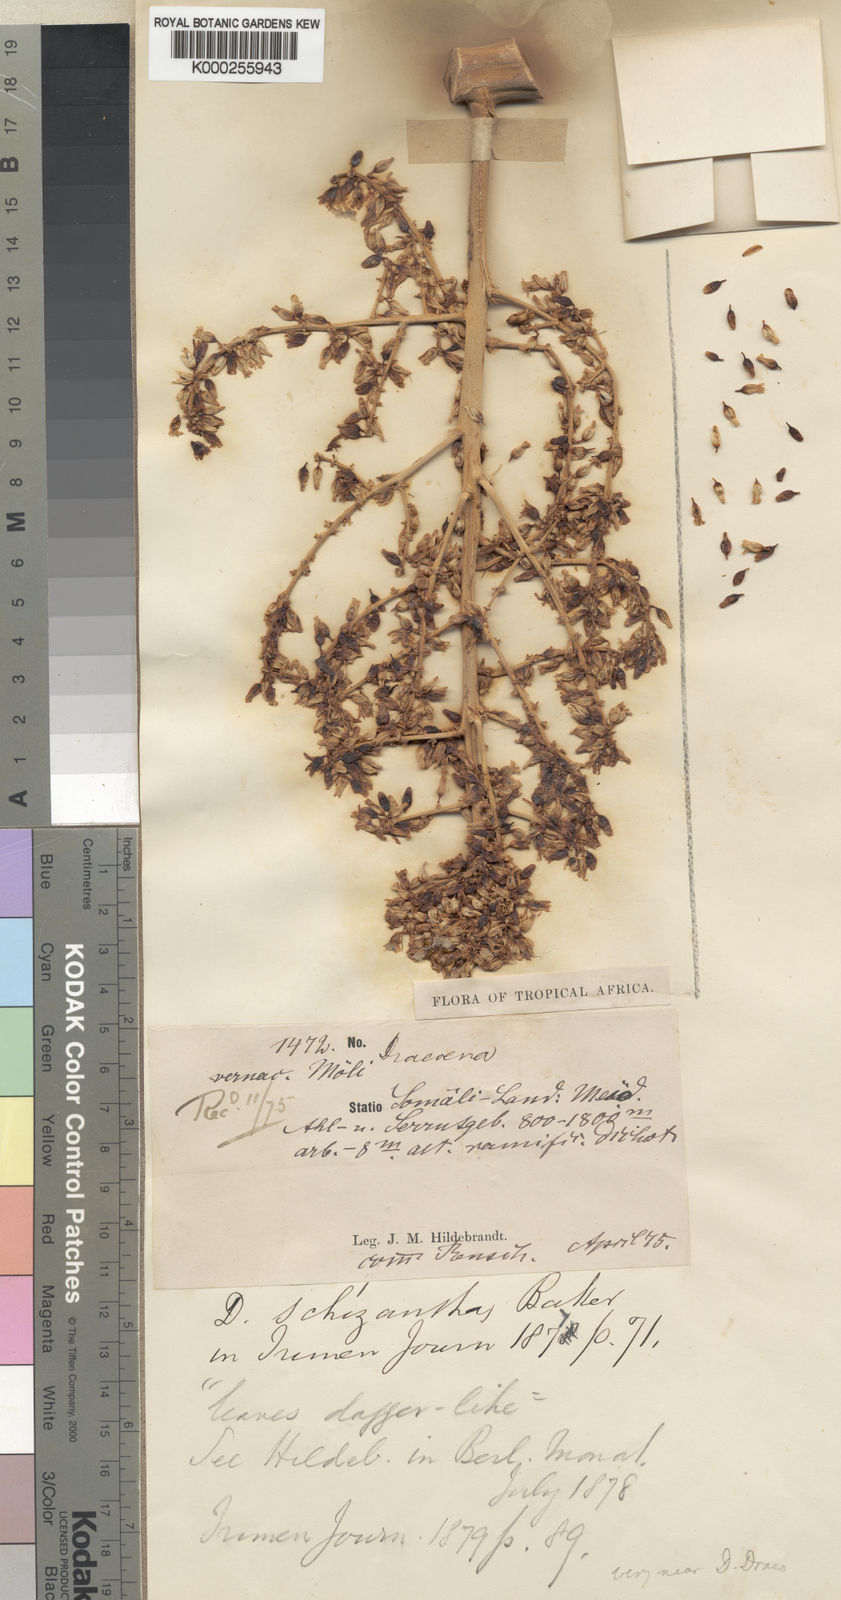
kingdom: Plantae
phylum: Tracheophyta
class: Liliopsida
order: Asparagales
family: Asparagaceae
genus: Dracaena
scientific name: Dracaena ombet
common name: Gabal elba dragon tree
